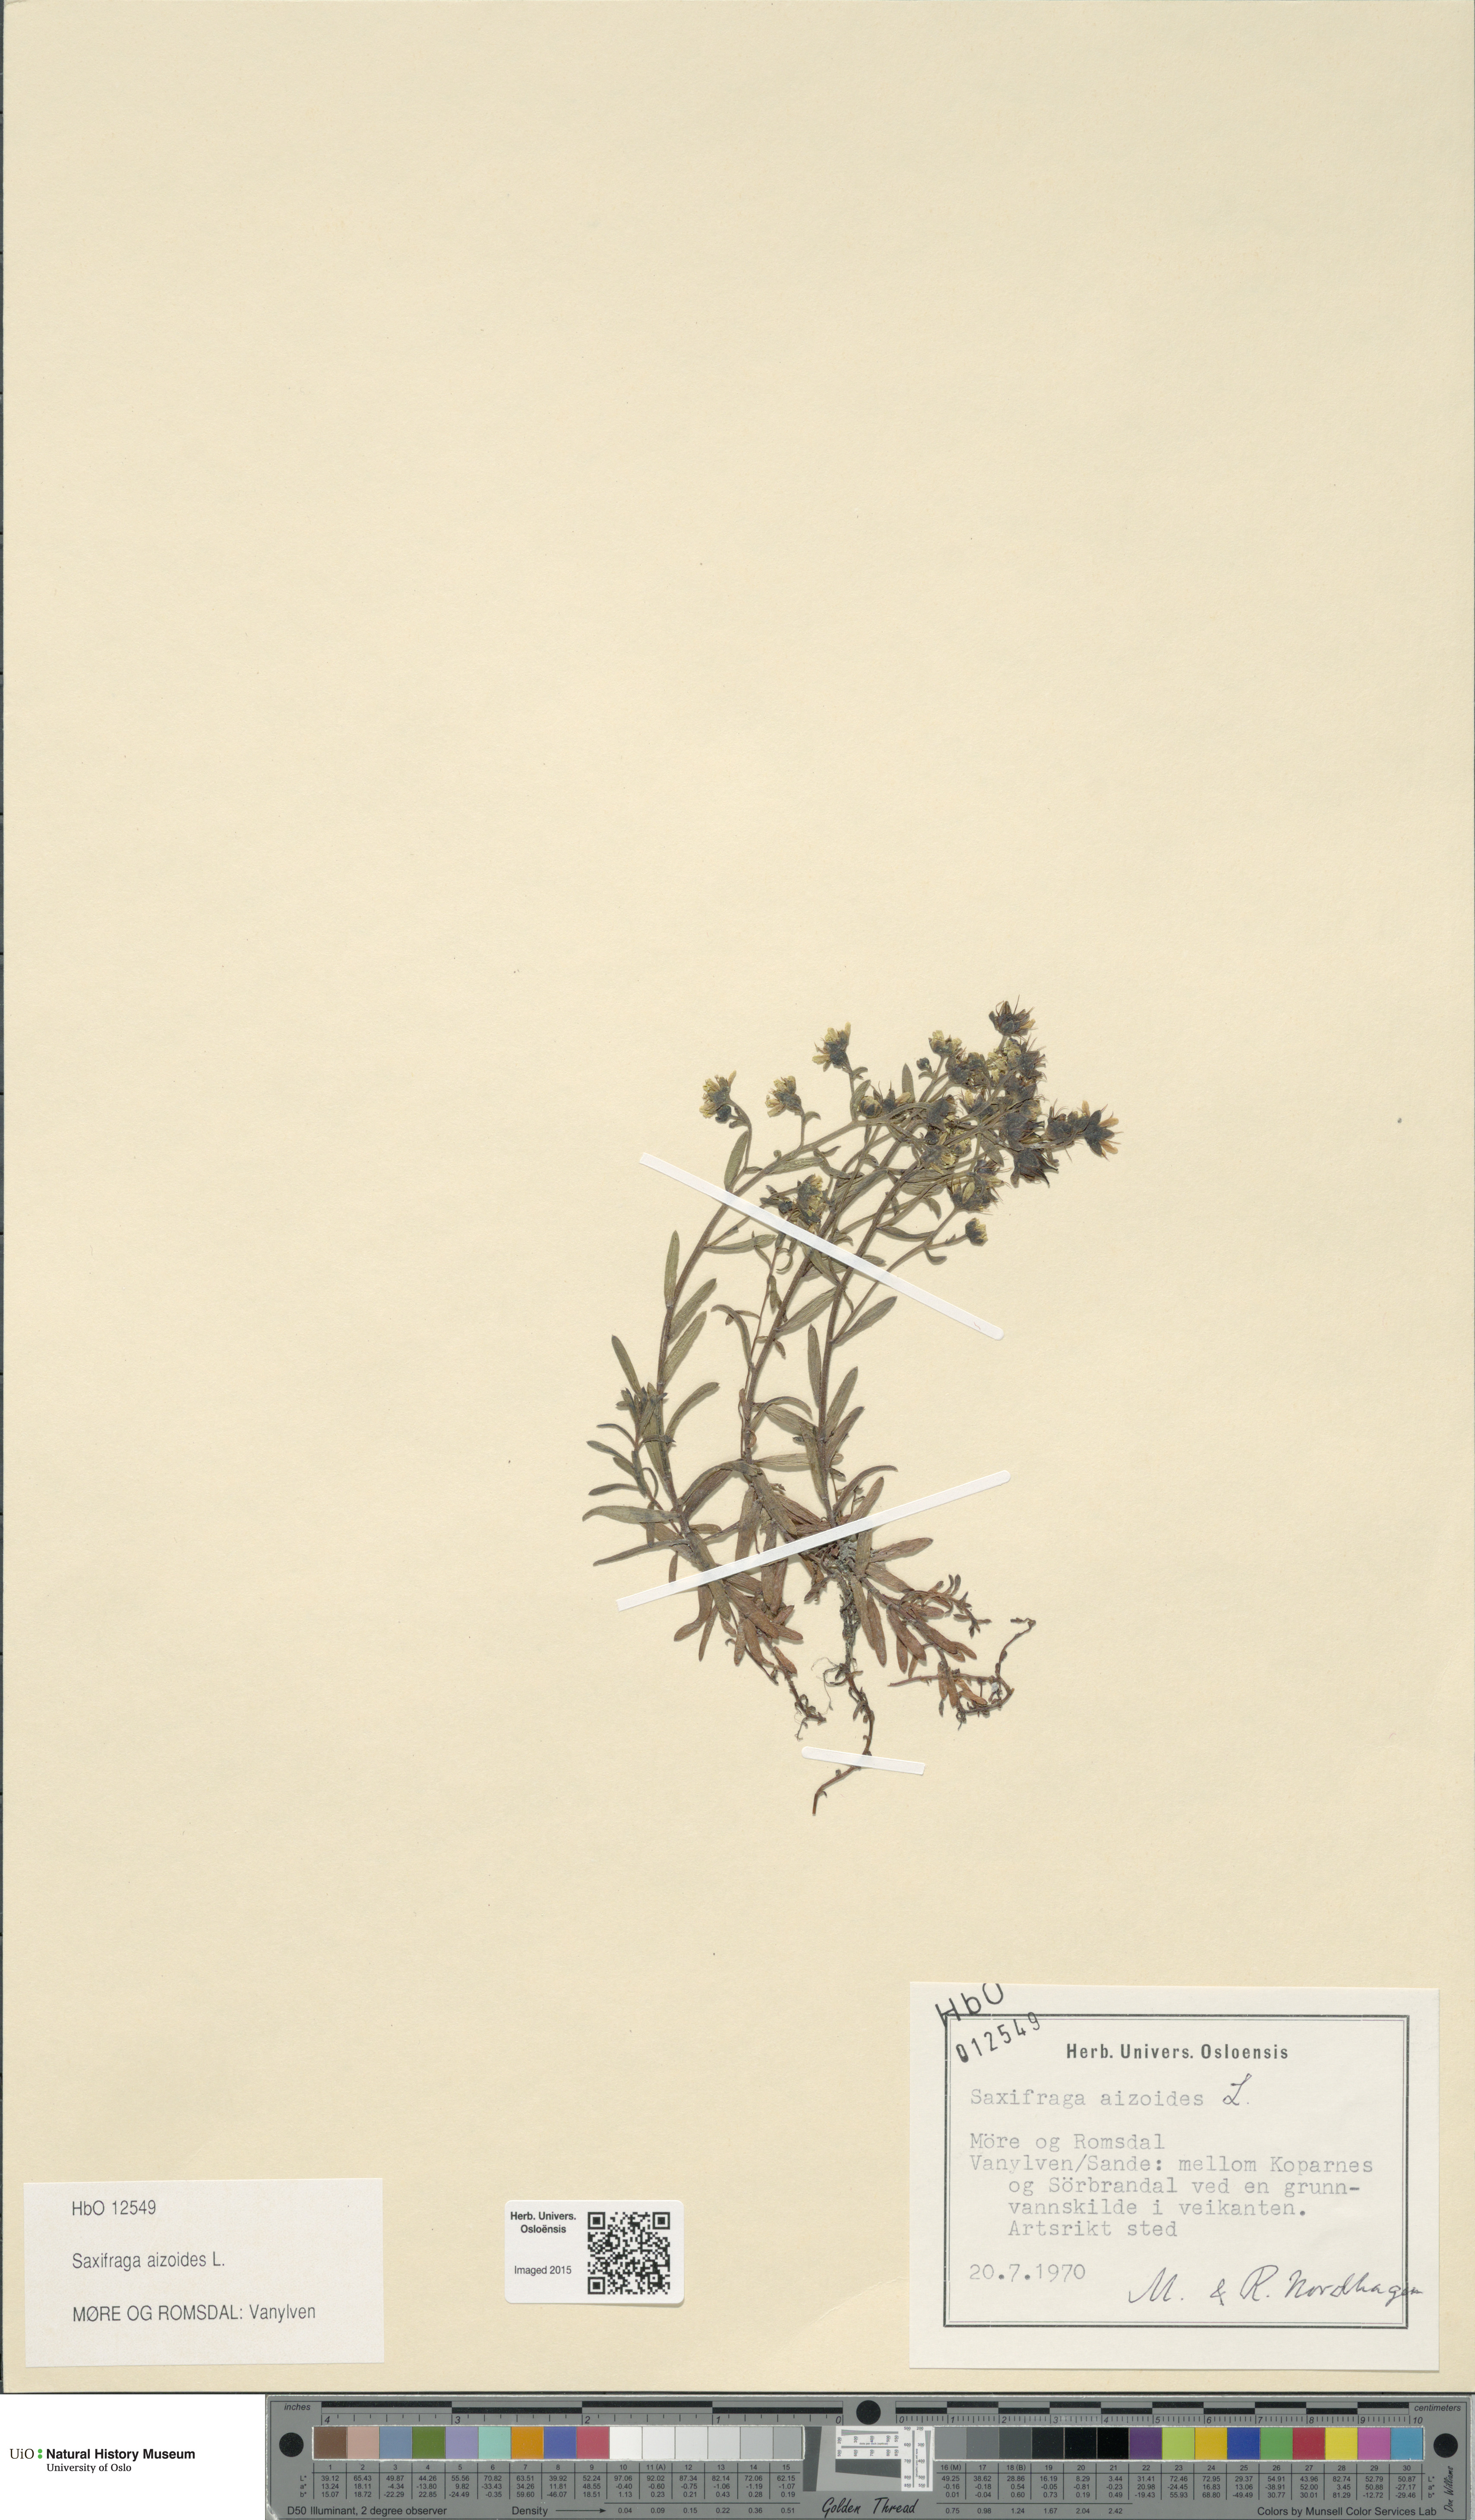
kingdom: Plantae
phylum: Tracheophyta
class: Magnoliopsida
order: Saxifragales
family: Saxifragaceae
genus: Saxifraga
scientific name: Saxifraga aizoides
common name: Yellow mountain saxifrage
